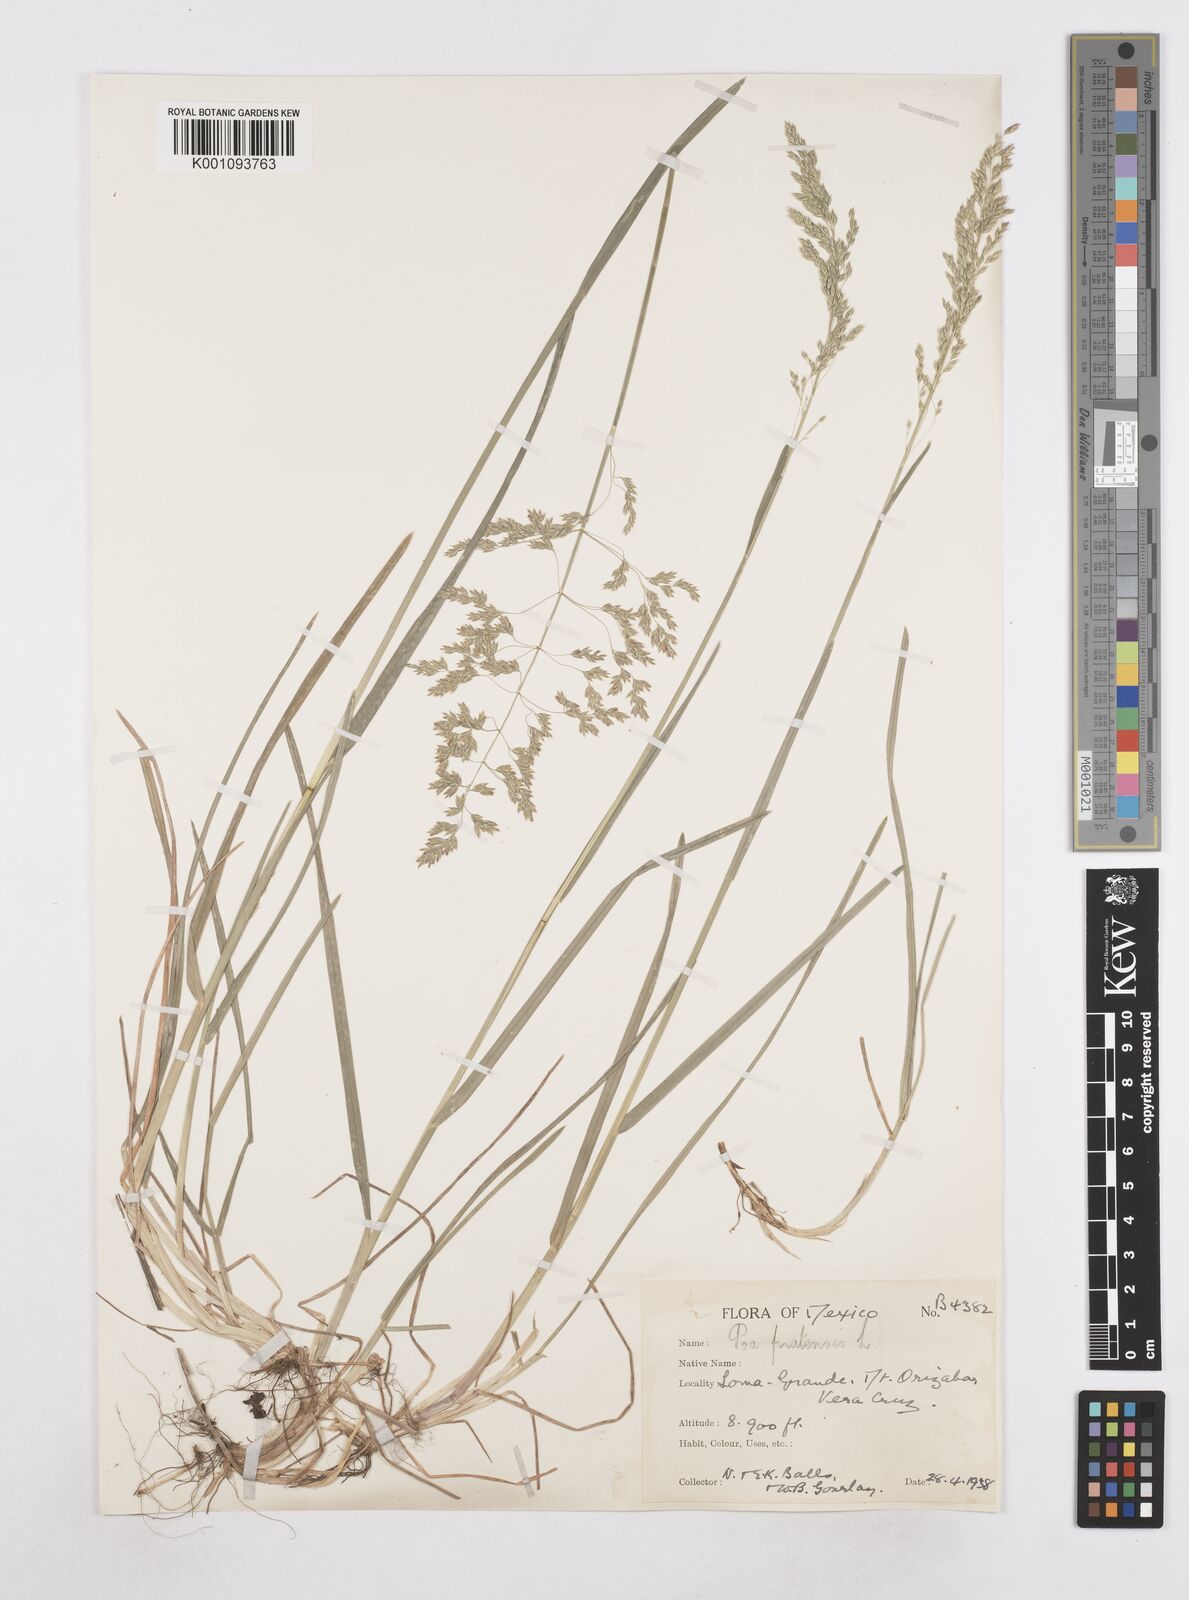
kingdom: Plantae
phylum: Tracheophyta
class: Liliopsida
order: Poales
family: Poaceae
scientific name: Poaceae
